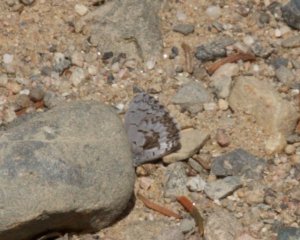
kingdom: Animalia
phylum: Arthropoda
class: Insecta
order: Lepidoptera
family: Lycaenidae
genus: Celastrina
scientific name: Celastrina lucia
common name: Northern Spring Azure
